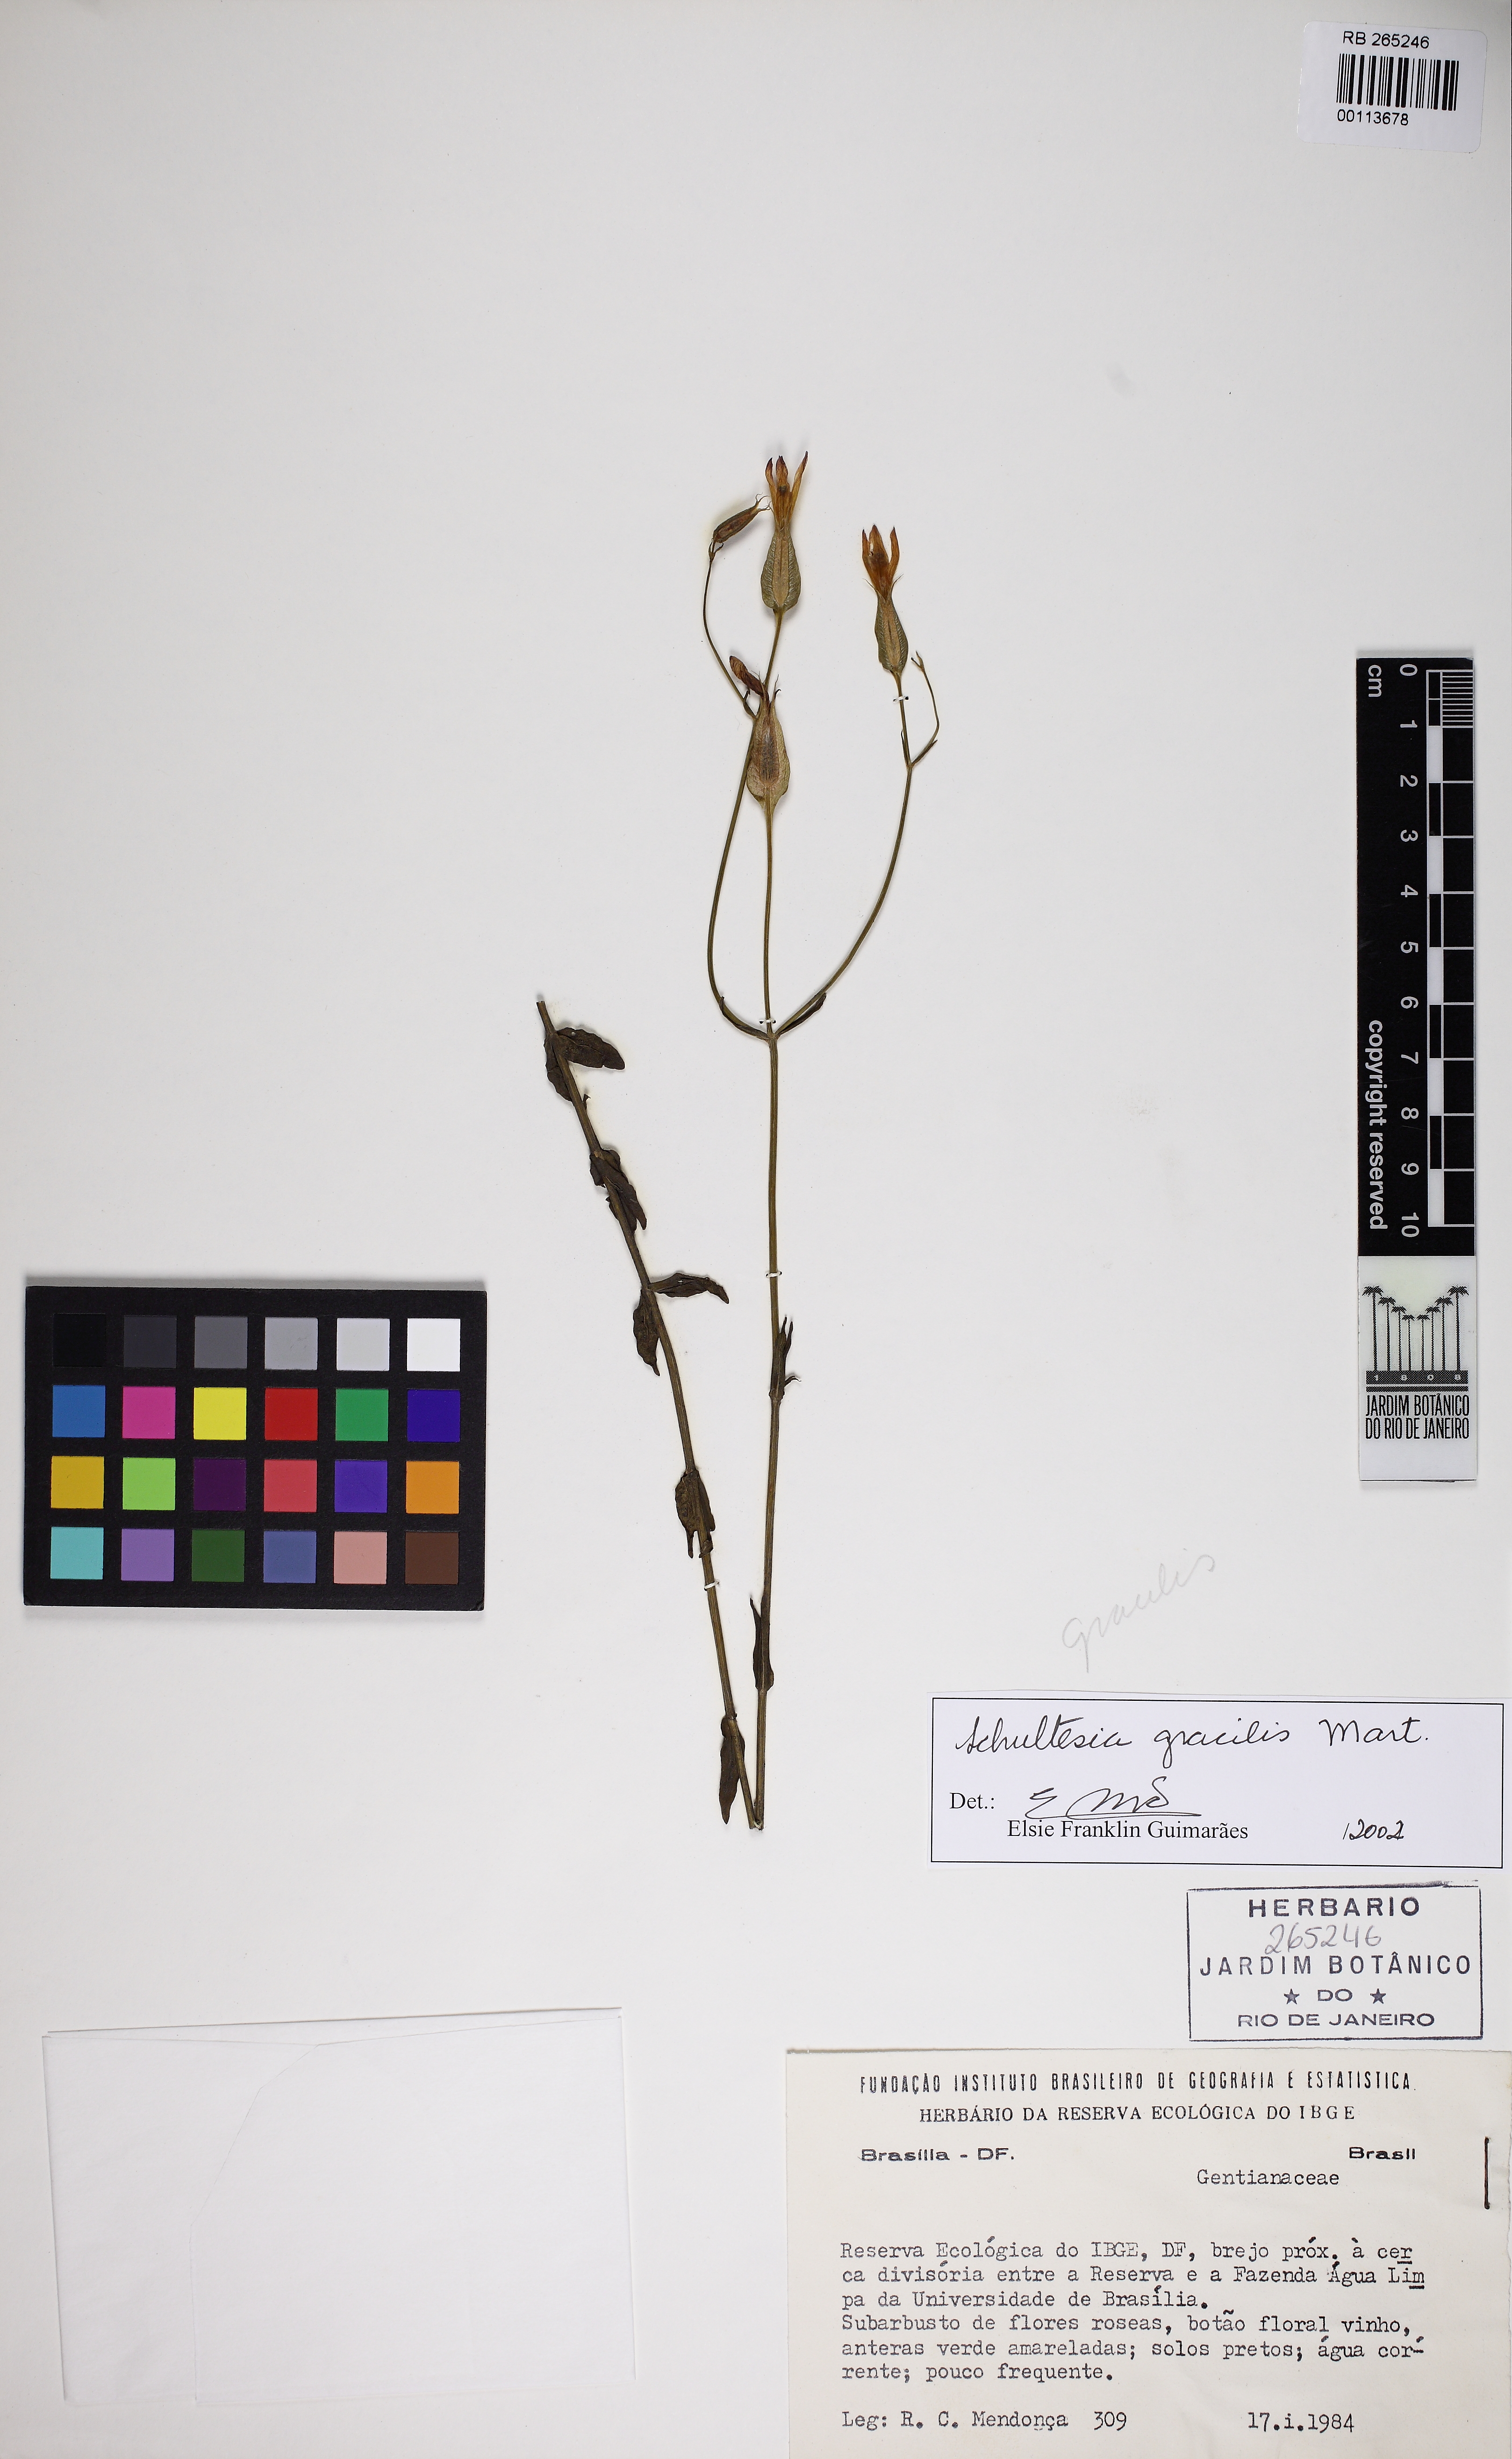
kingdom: Plantae
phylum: Tracheophyta
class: Magnoliopsida
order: Gentianales
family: Gentianaceae
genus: Schultesia
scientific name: Schultesia gracilis
